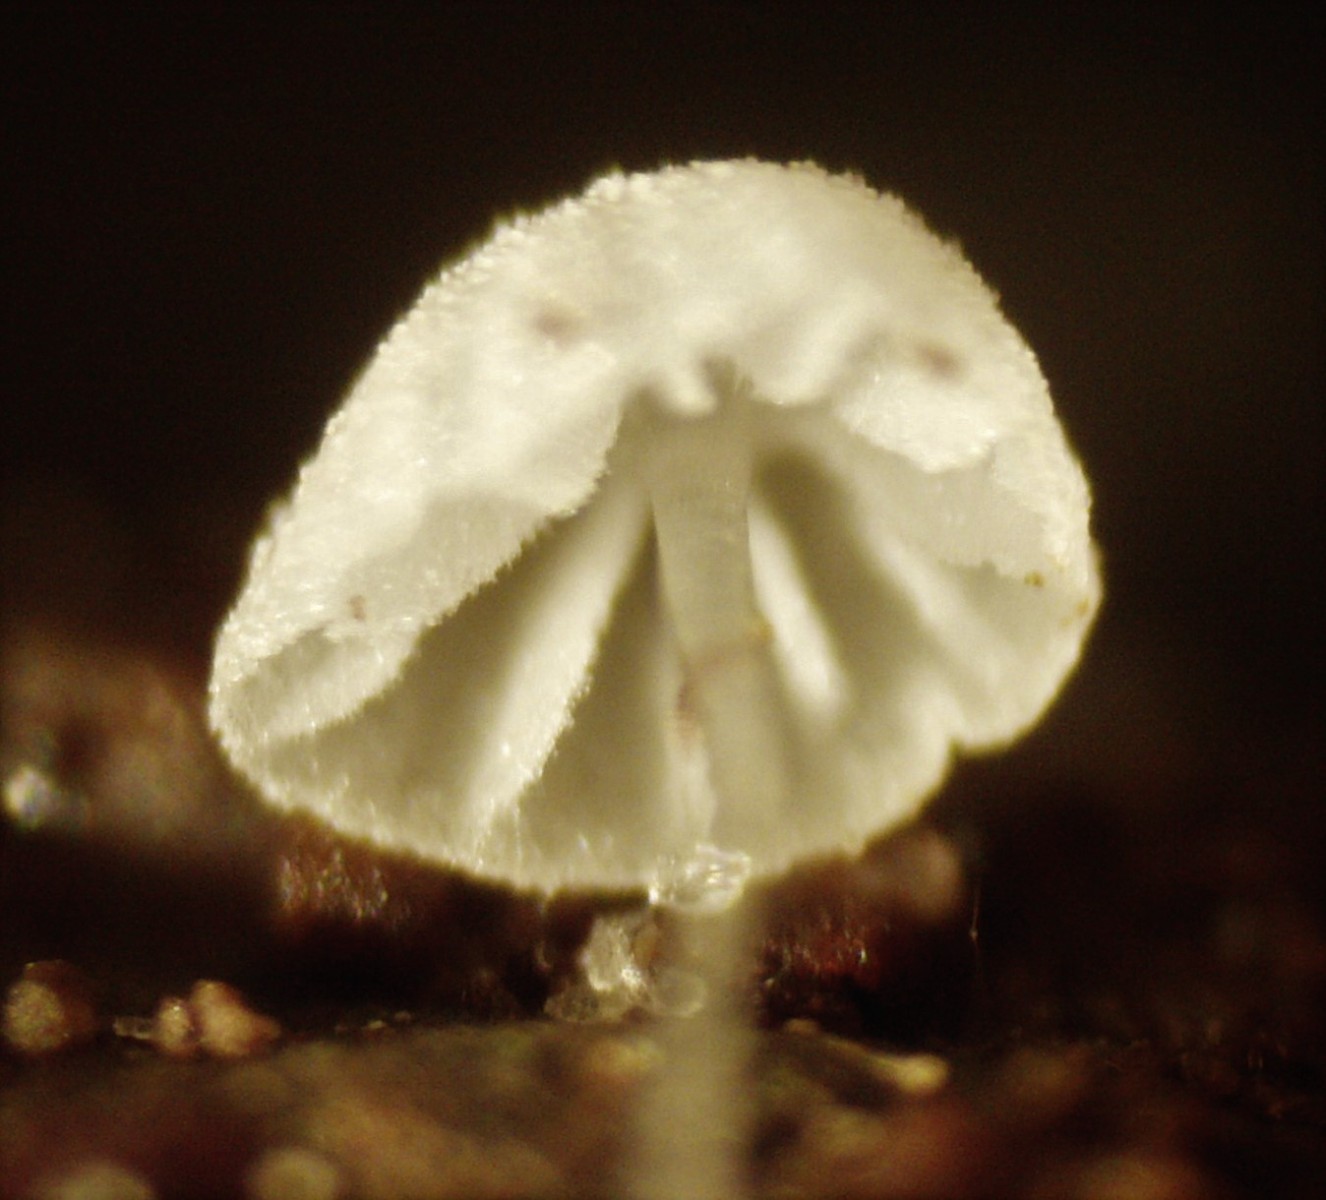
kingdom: Fungi
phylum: Basidiomycota
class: Agaricomycetes
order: Agaricales
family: Mycenaceae
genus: Mycena
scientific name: Mycena
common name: huesvamp
